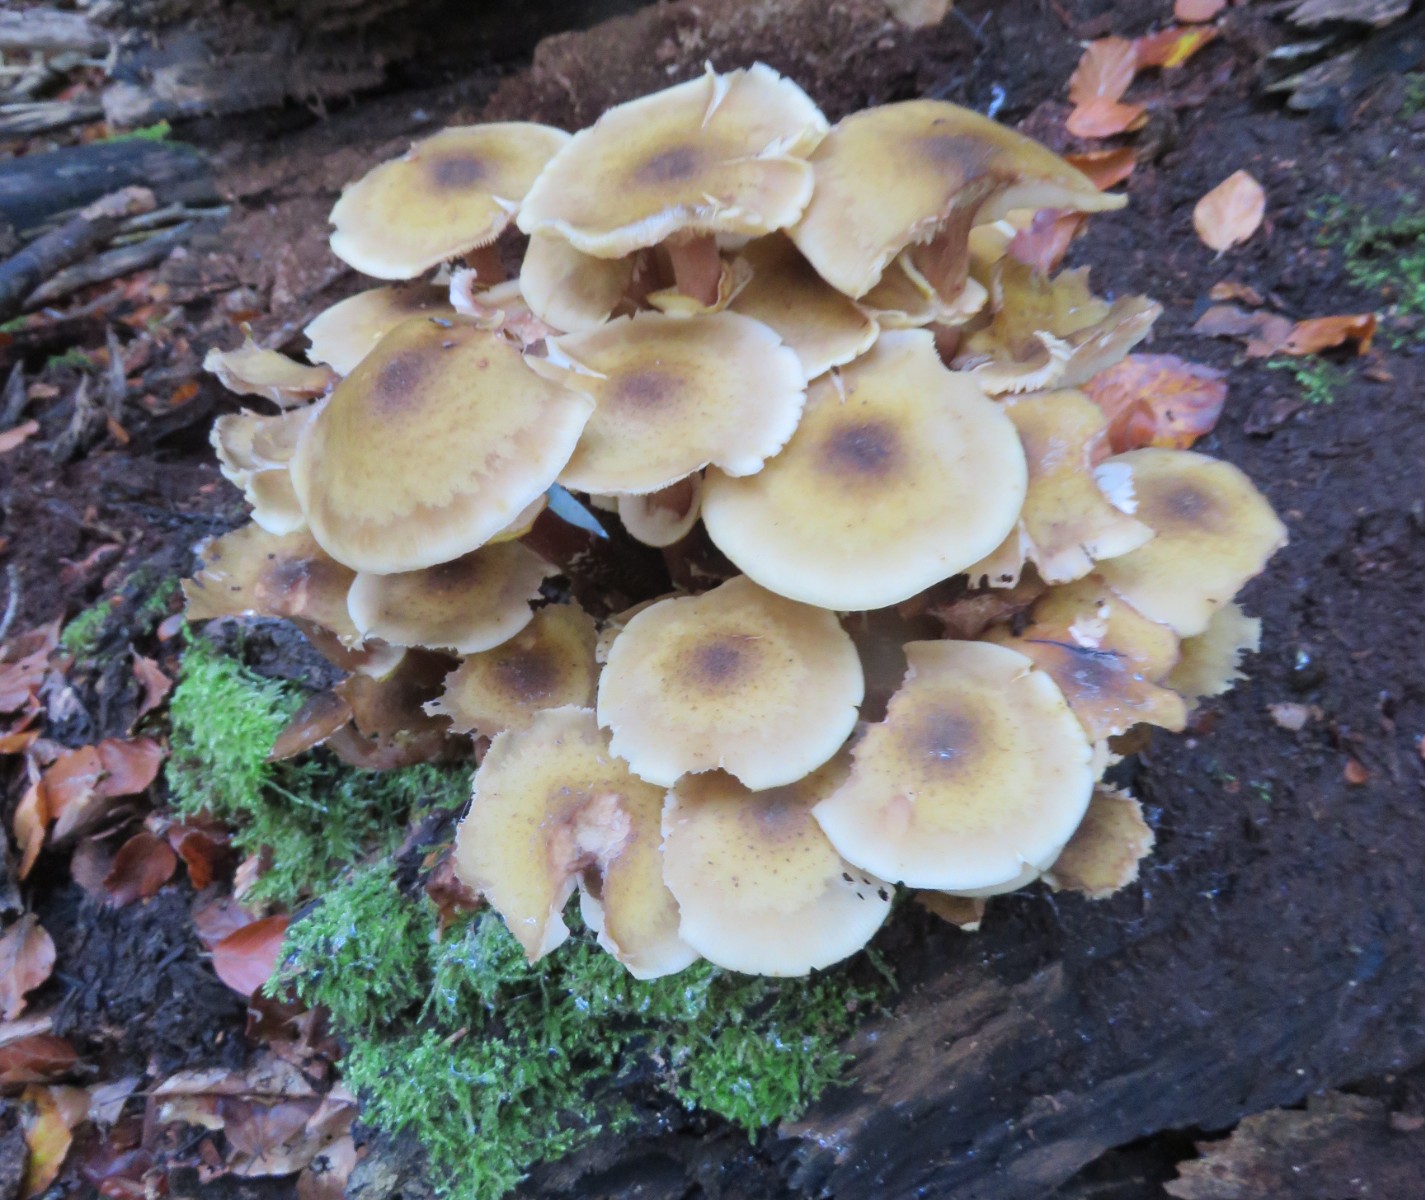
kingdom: Fungi
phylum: Basidiomycota
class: Agaricomycetes
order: Agaricales
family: Physalacriaceae
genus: Armillaria
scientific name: Armillaria mellea
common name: ægte honningsvamp
